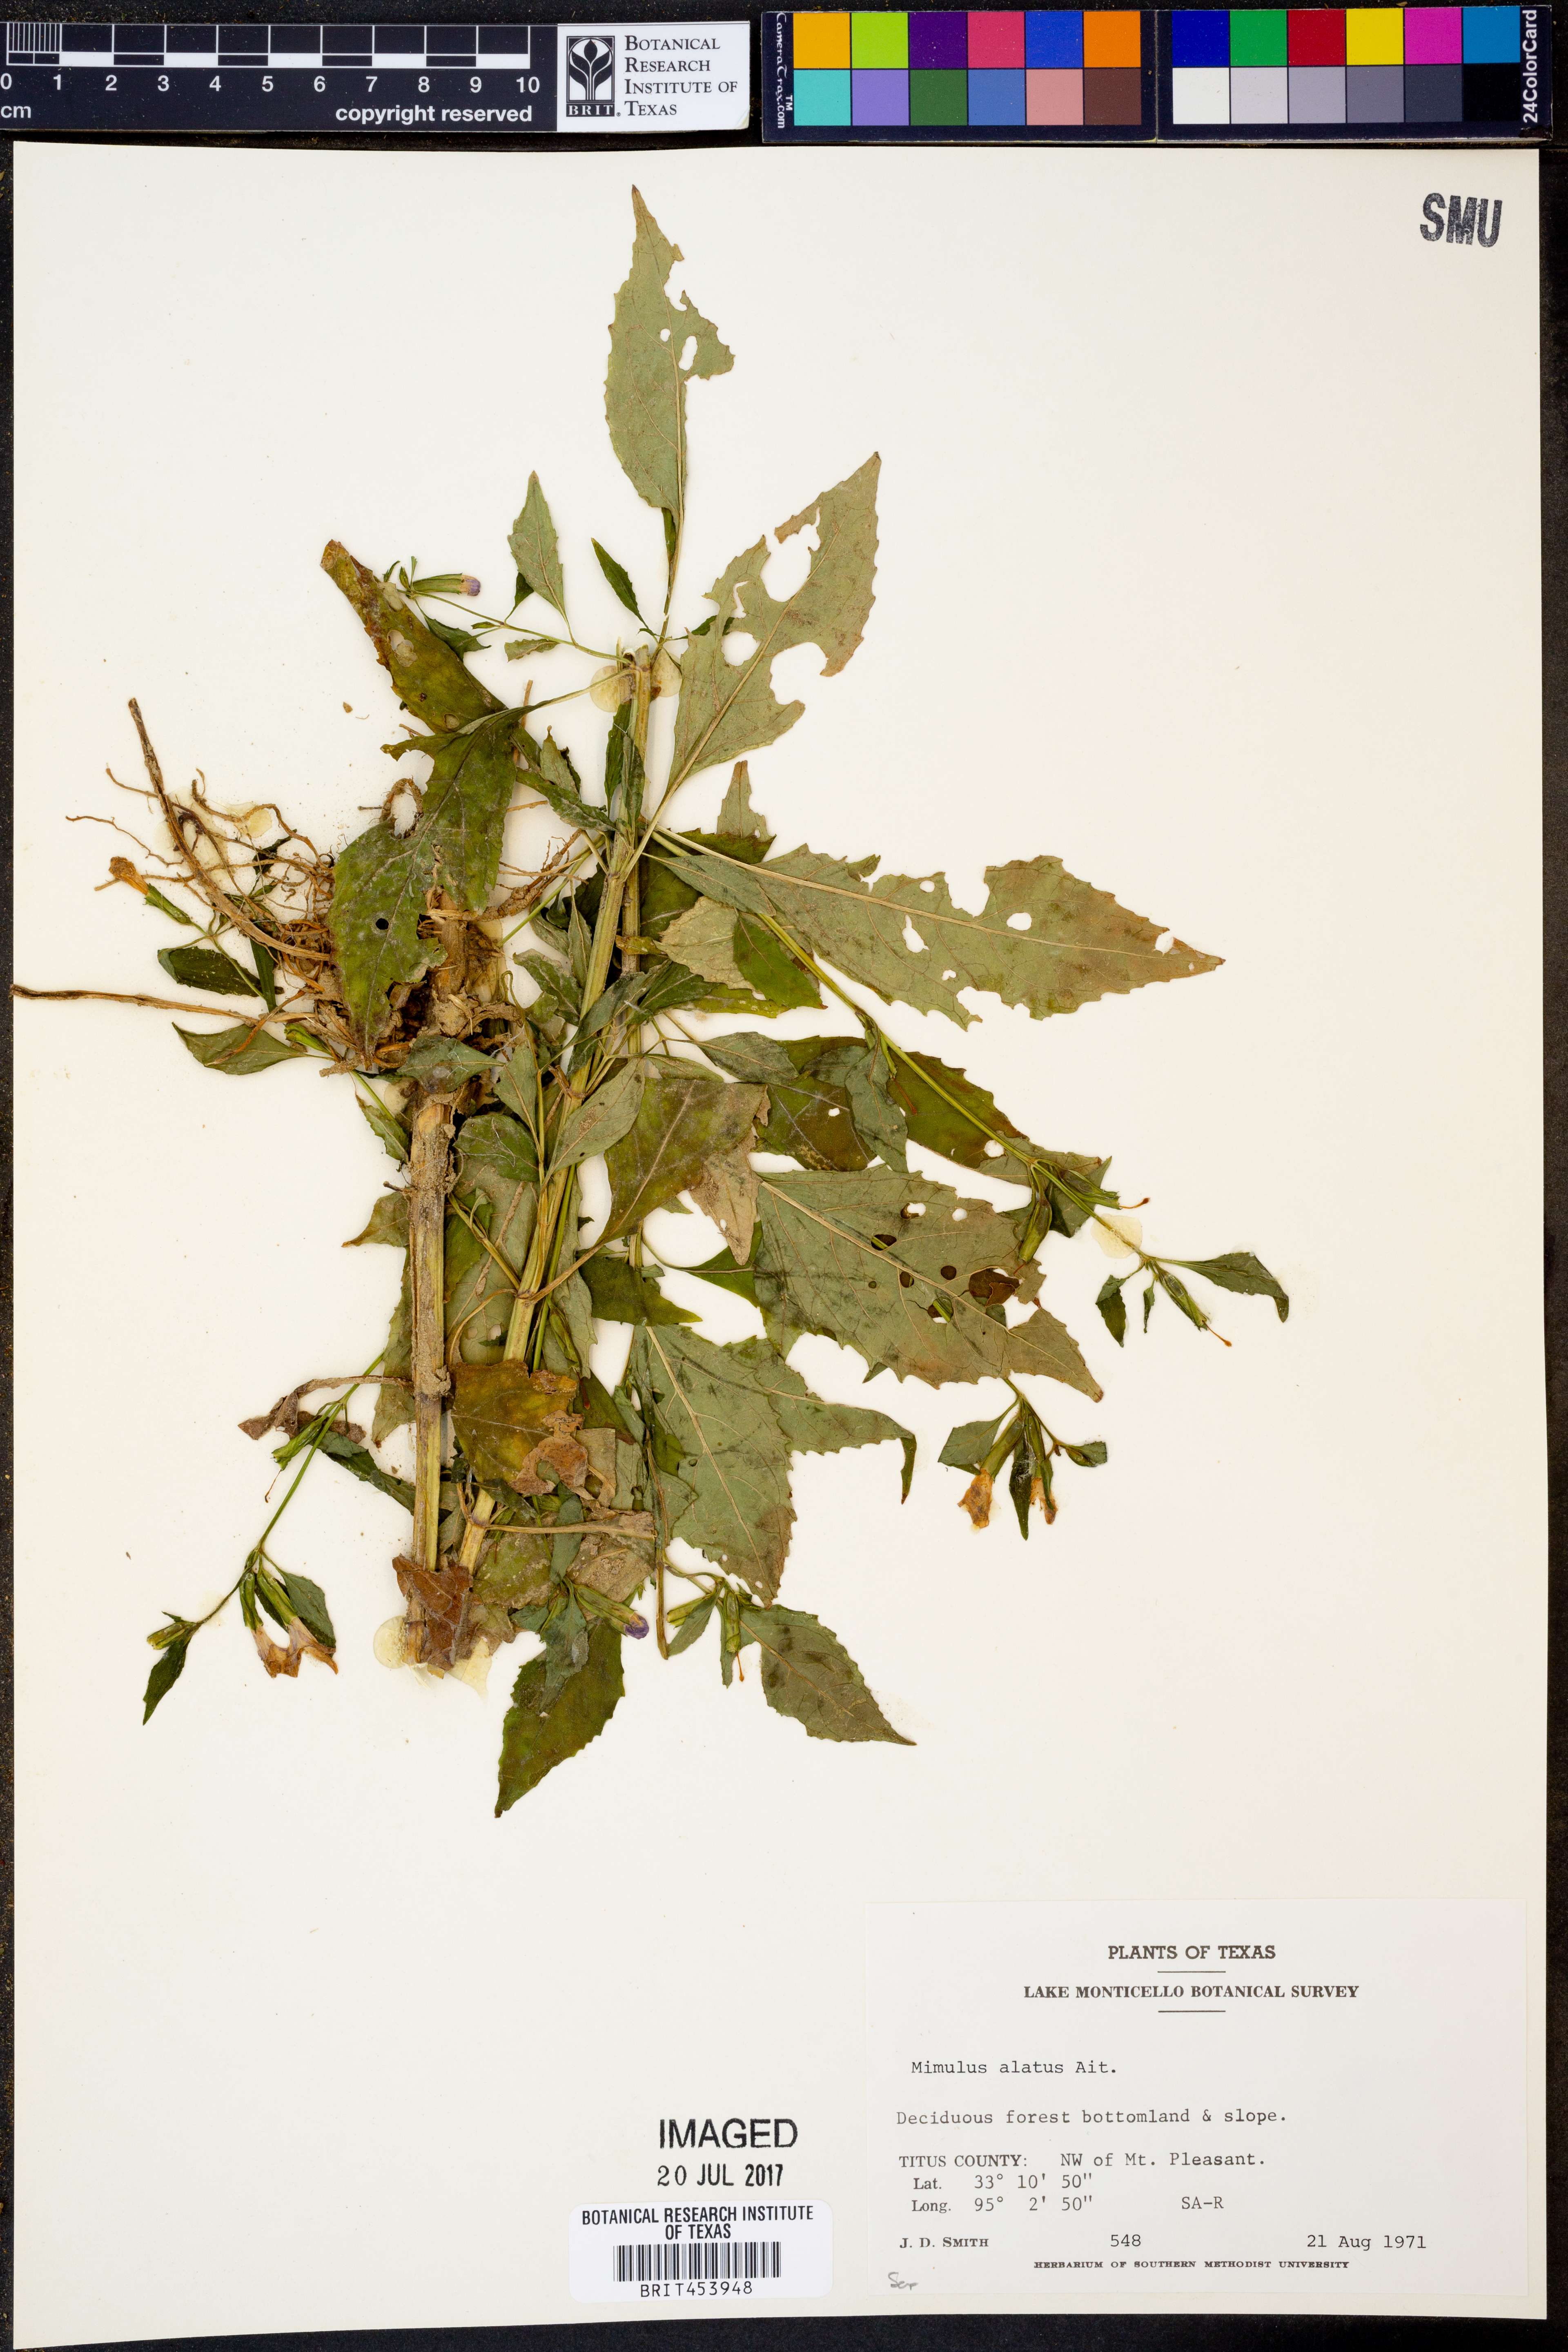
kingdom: Plantae
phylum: Tracheophyta
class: Magnoliopsida
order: Lamiales
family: Phrymaceae
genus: Mimulus
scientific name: Mimulus alatus
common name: Sharp-wing monkey-flower
